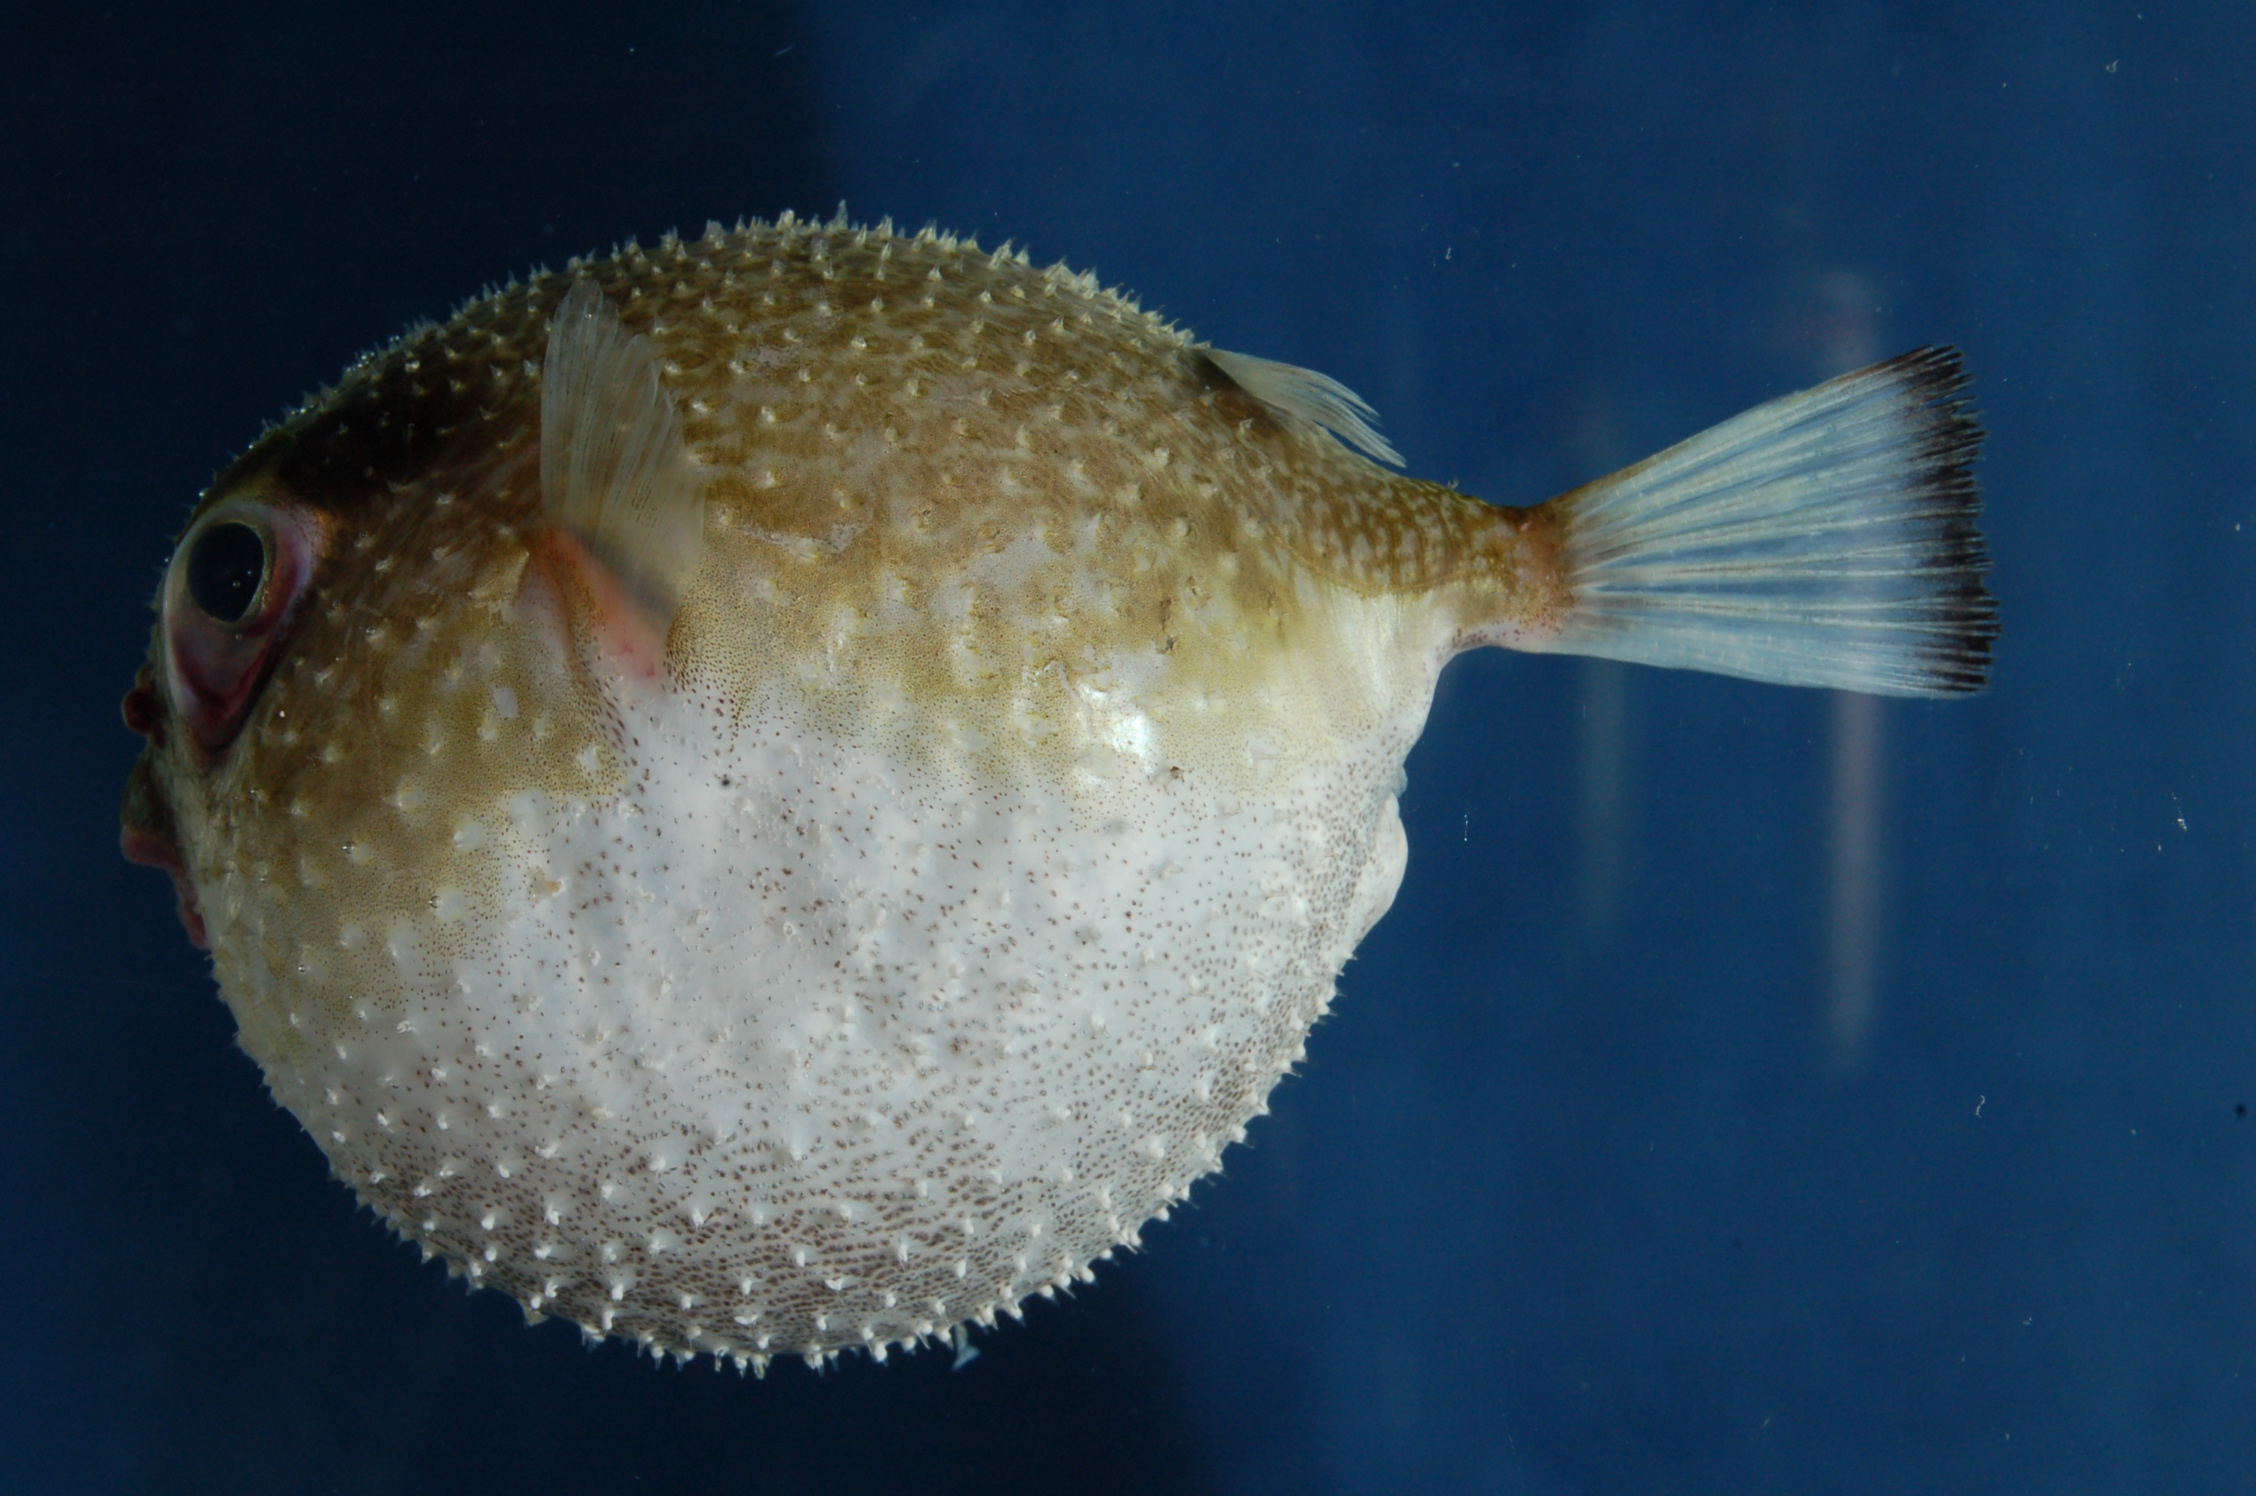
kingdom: Animalia
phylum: Chordata
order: Tetraodontiformes
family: Tetraodontidae
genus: Tylerius
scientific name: Tylerius spinosissimus
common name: Spiny blaasop
